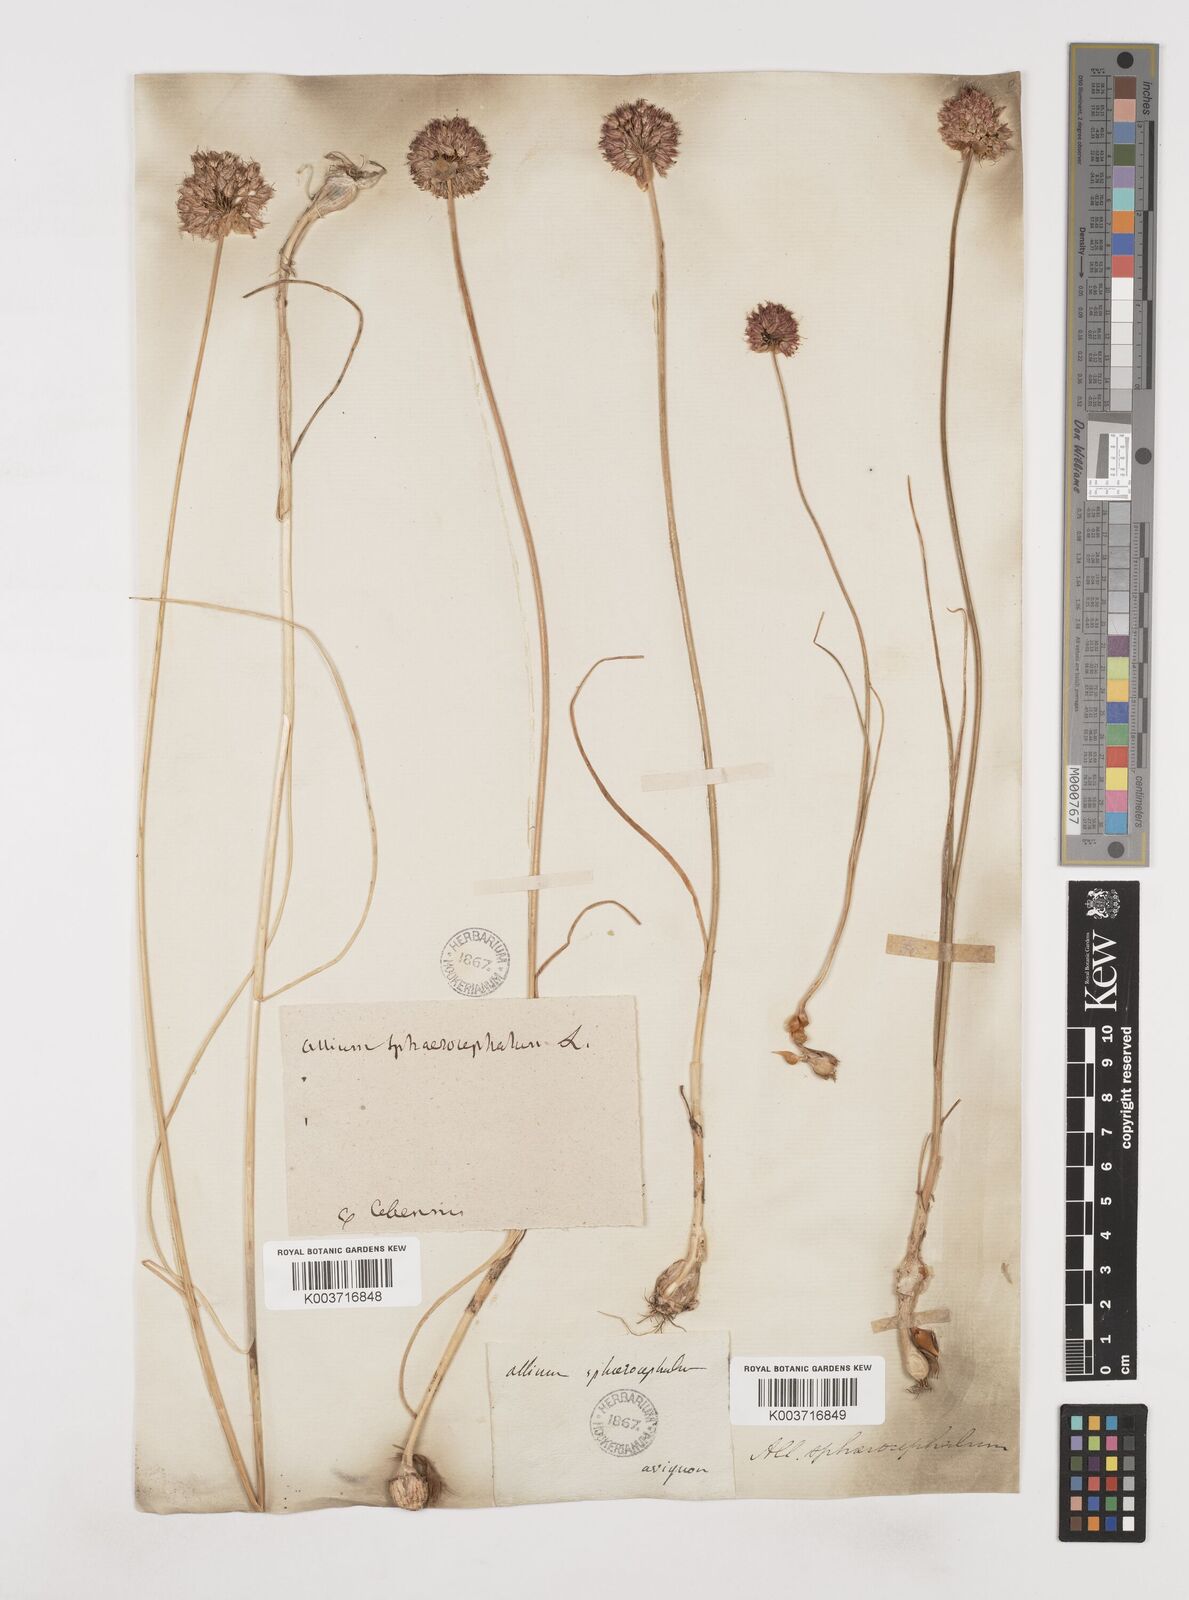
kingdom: Plantae
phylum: Tracheophyta
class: Liliopsida
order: Asparagales
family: Amaryllidaceae
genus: Allium
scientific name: Allium sphaerocephalon
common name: Round-headed leek
